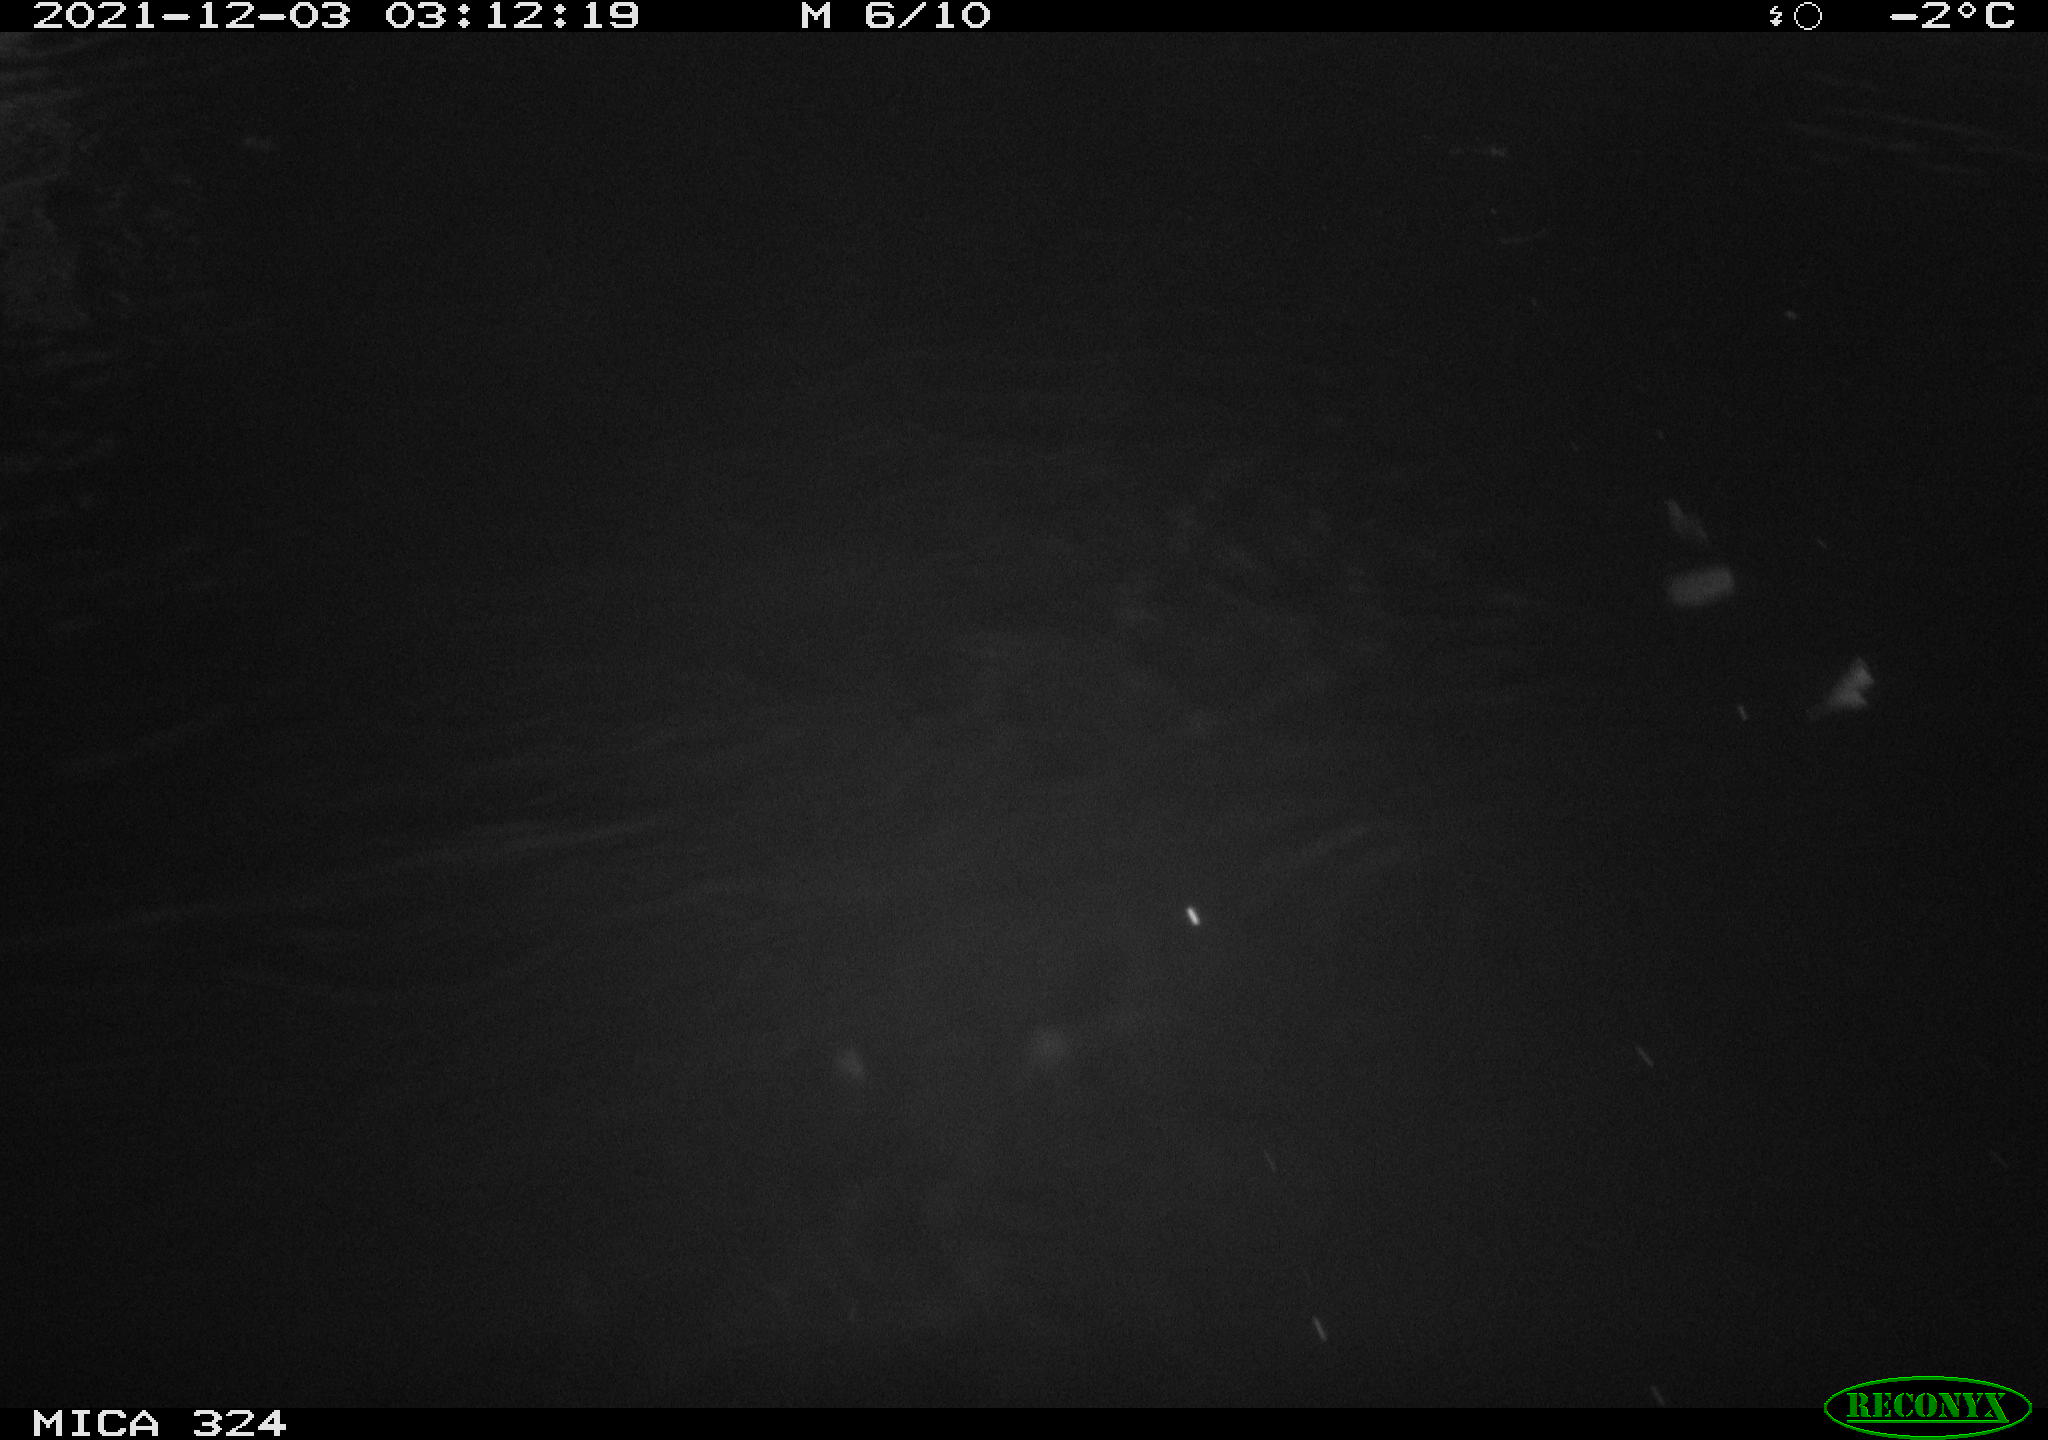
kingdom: Animalia
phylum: Chordata
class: Mammalia
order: Rodentia
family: Cricetidae
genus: Ondatra
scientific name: Ondatra zibethicus
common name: Muskrat
